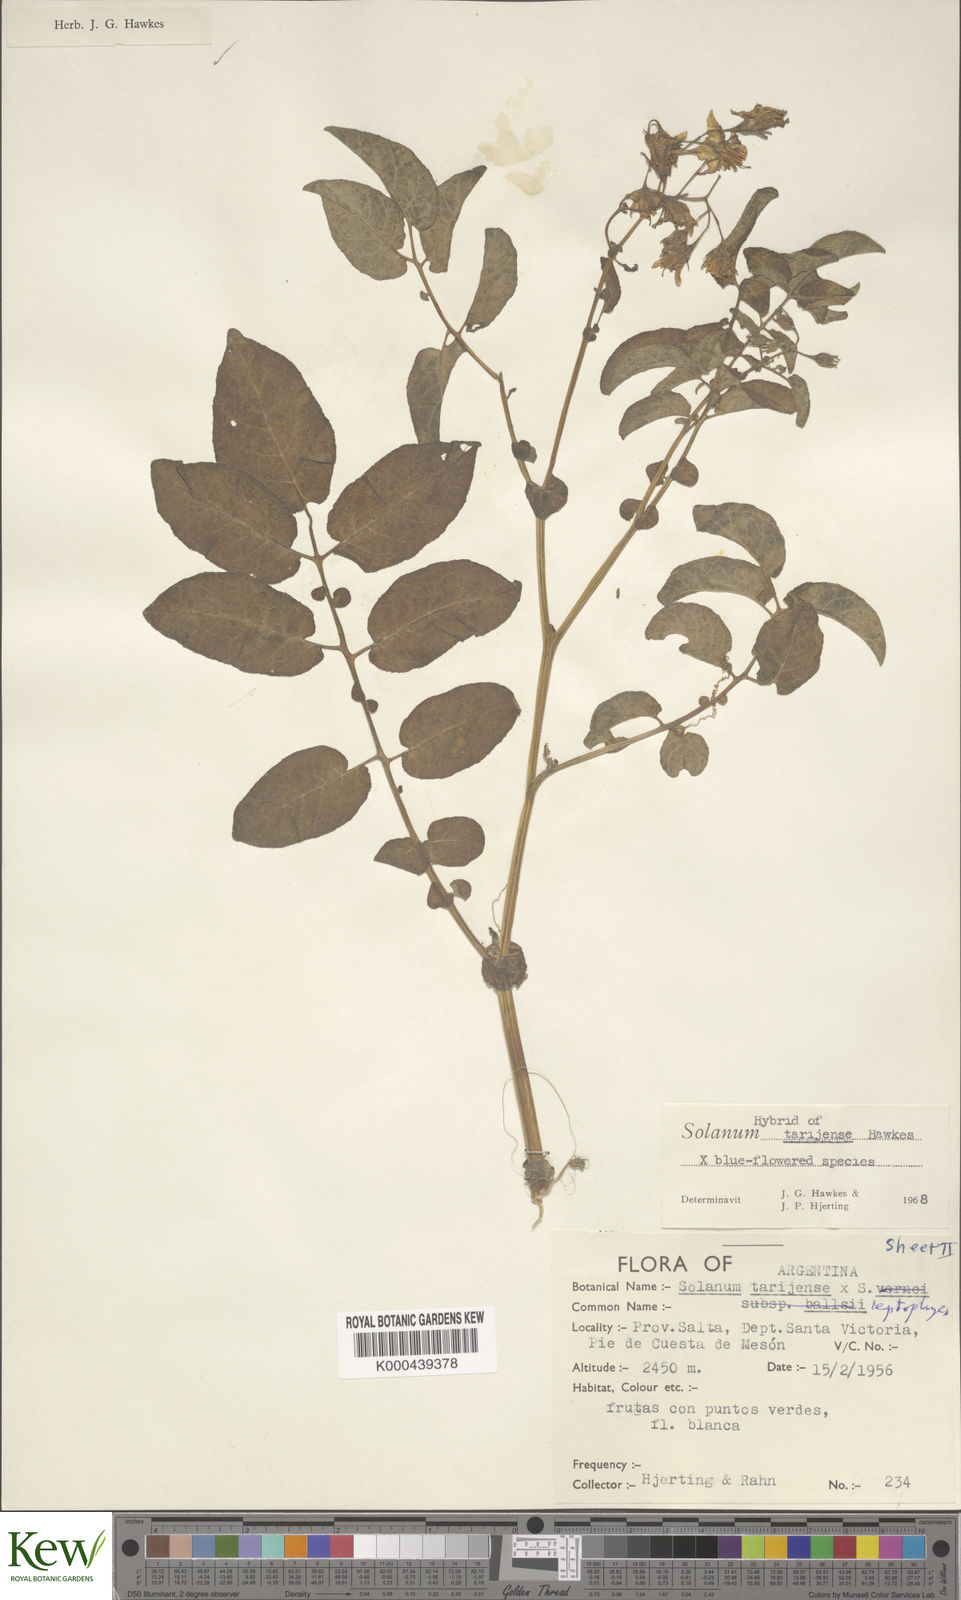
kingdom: Plantae
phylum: Tracheophyta
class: Magnoliopsida
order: Solanales
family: Solanaceae
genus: Solanum
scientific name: Solanum tarijense
